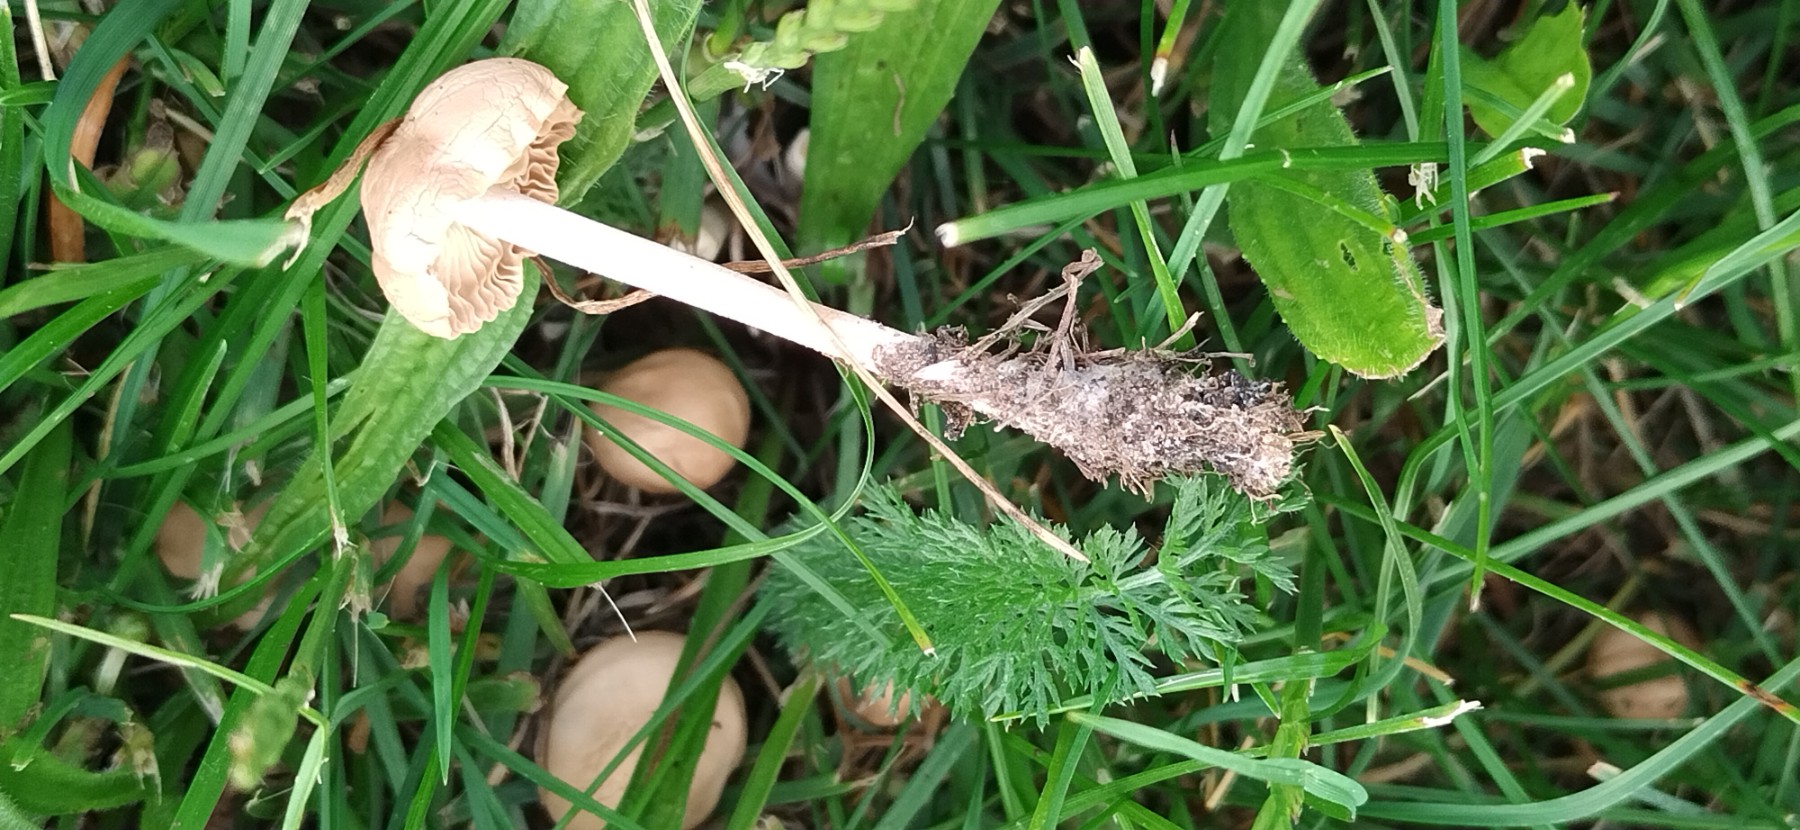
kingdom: Fungi
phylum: Basidiomycota
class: Agaricomycetes
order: Agaricales
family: Marasmiaceae
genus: Marasmius
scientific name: Marasmius oreades
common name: elledans-bruskhat
